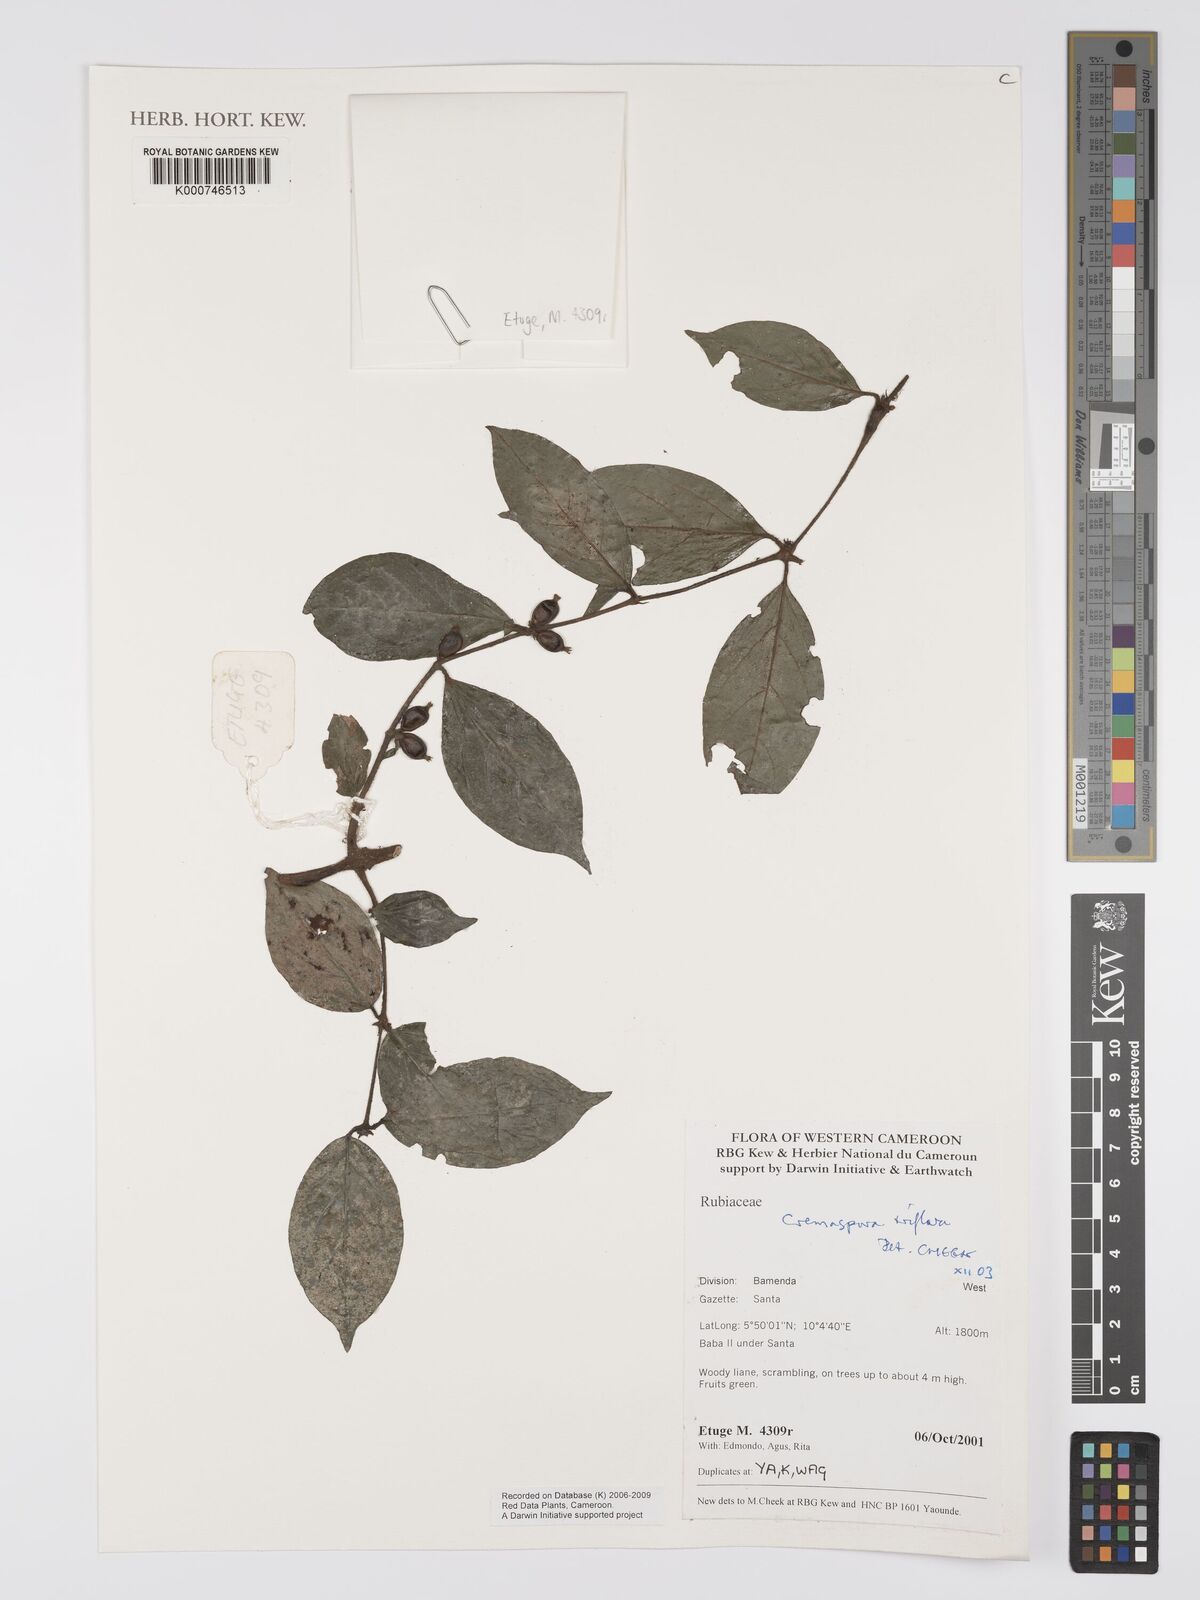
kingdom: Plantae
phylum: Tracheophyta
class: Magnoliopsida
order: Gentianales
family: Rubiaceae
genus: Cremaspora
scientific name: Cremaspora triflora
